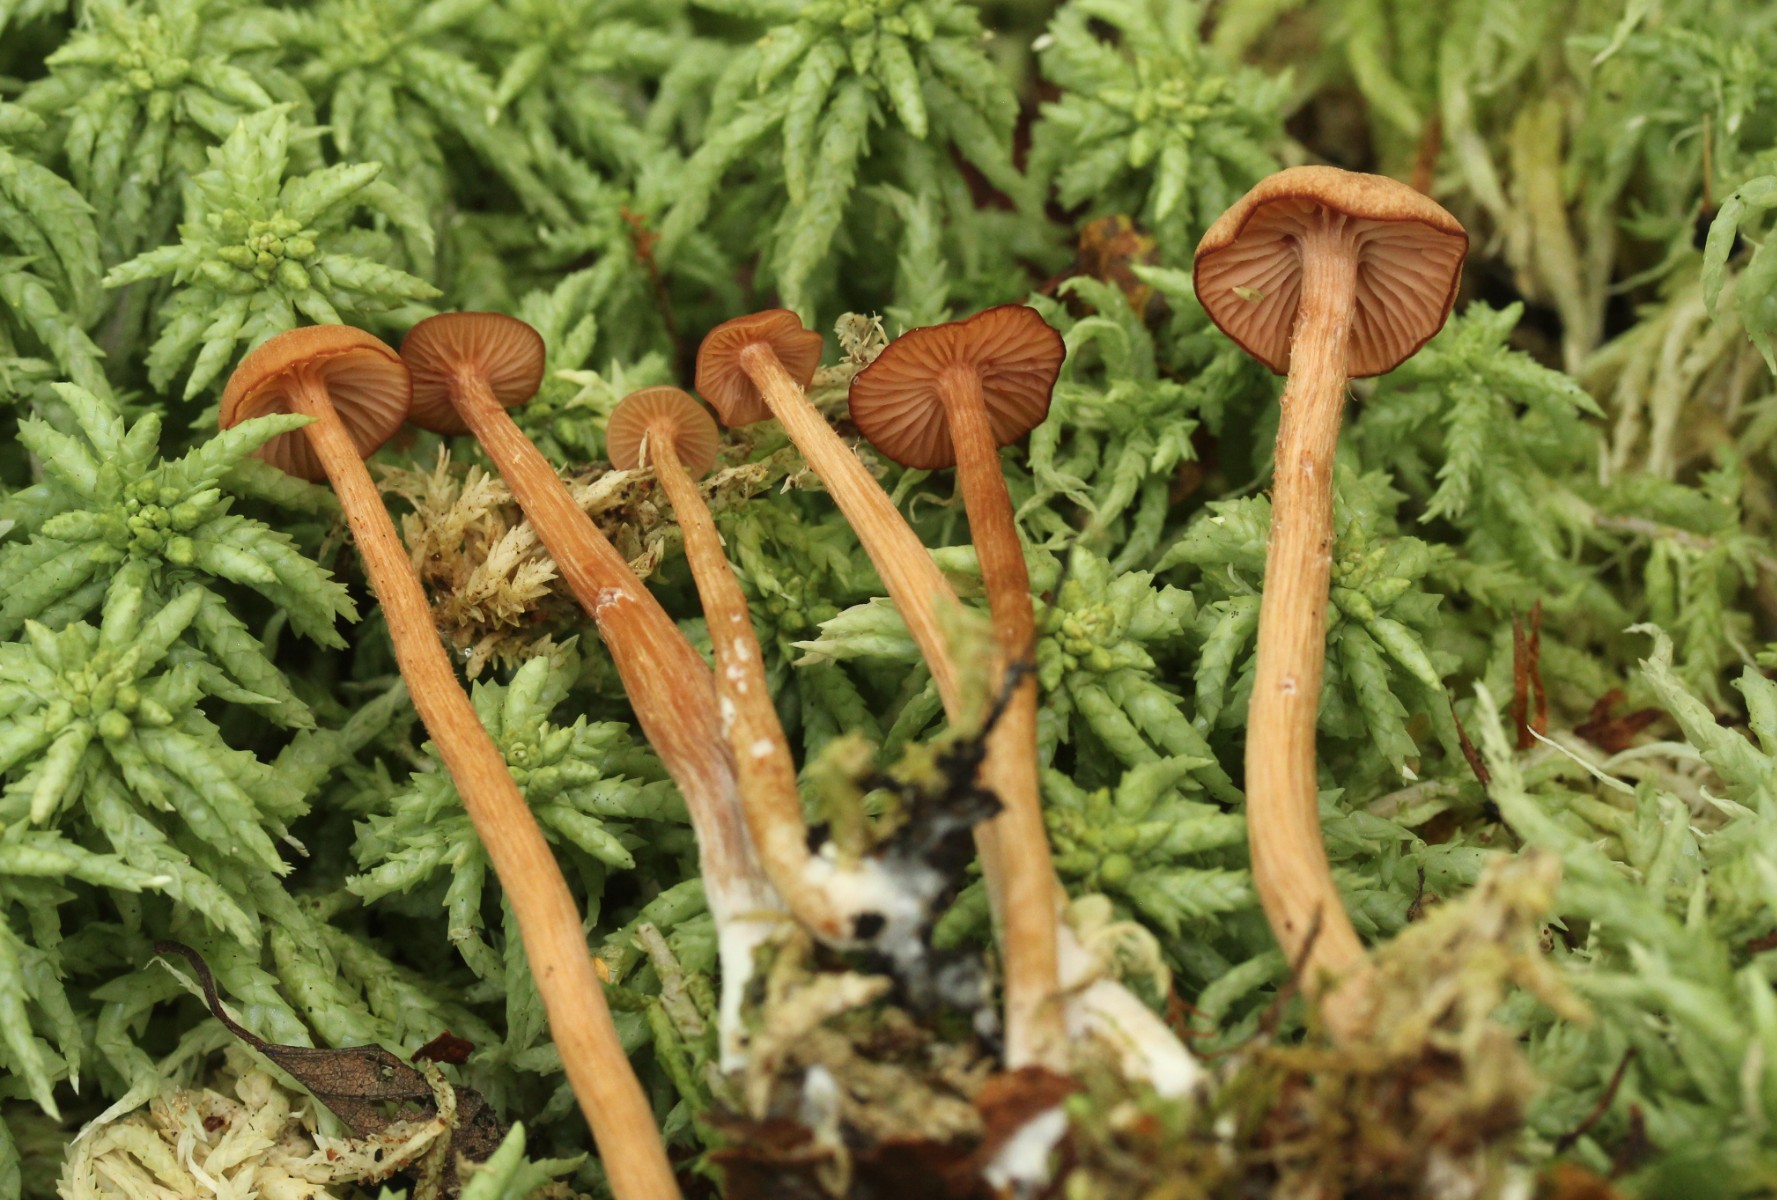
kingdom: Fungi
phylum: Basidiomycota
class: Agaricomycetes
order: Agaricales
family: Hydnangiaceae
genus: Laccaria
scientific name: Laccaria
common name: ametysthat
